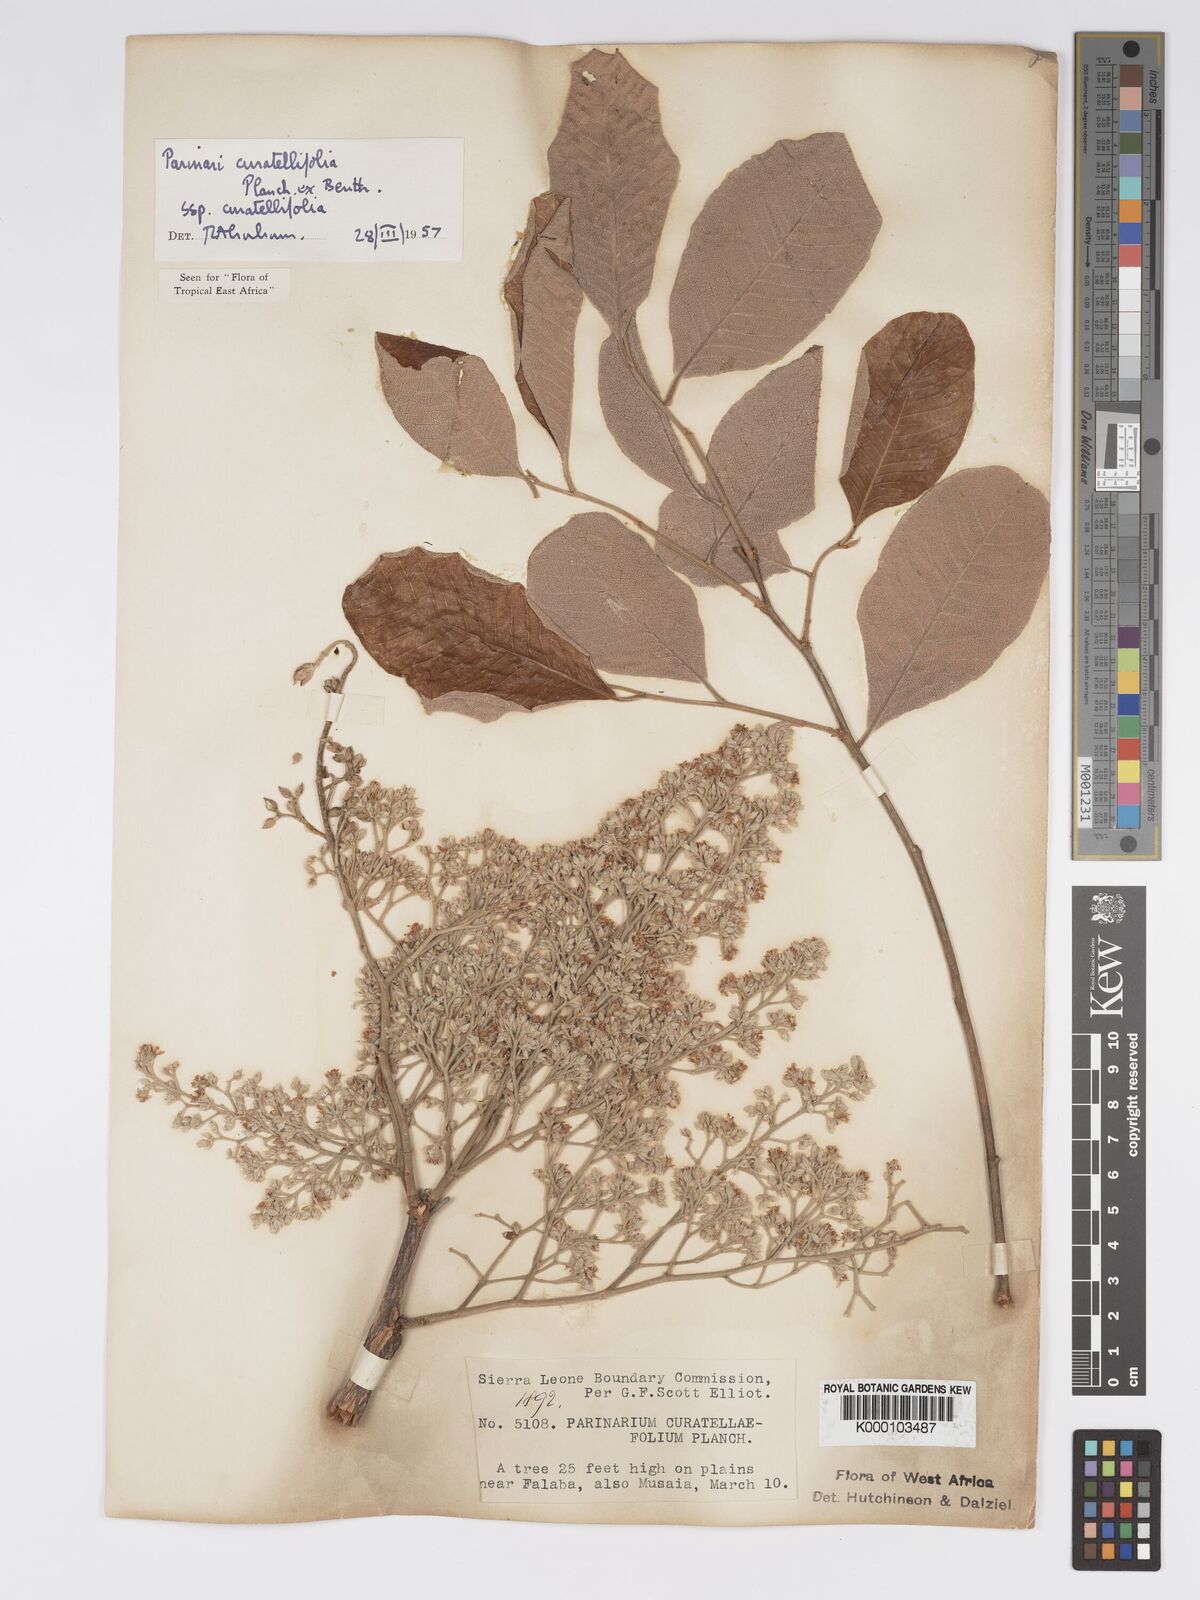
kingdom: Plantae
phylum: Tracheophyta
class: Magnoliopsida
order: Malpighiales
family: Chrysobalanaceae
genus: Parinari
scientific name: Parinari curatellifolia
